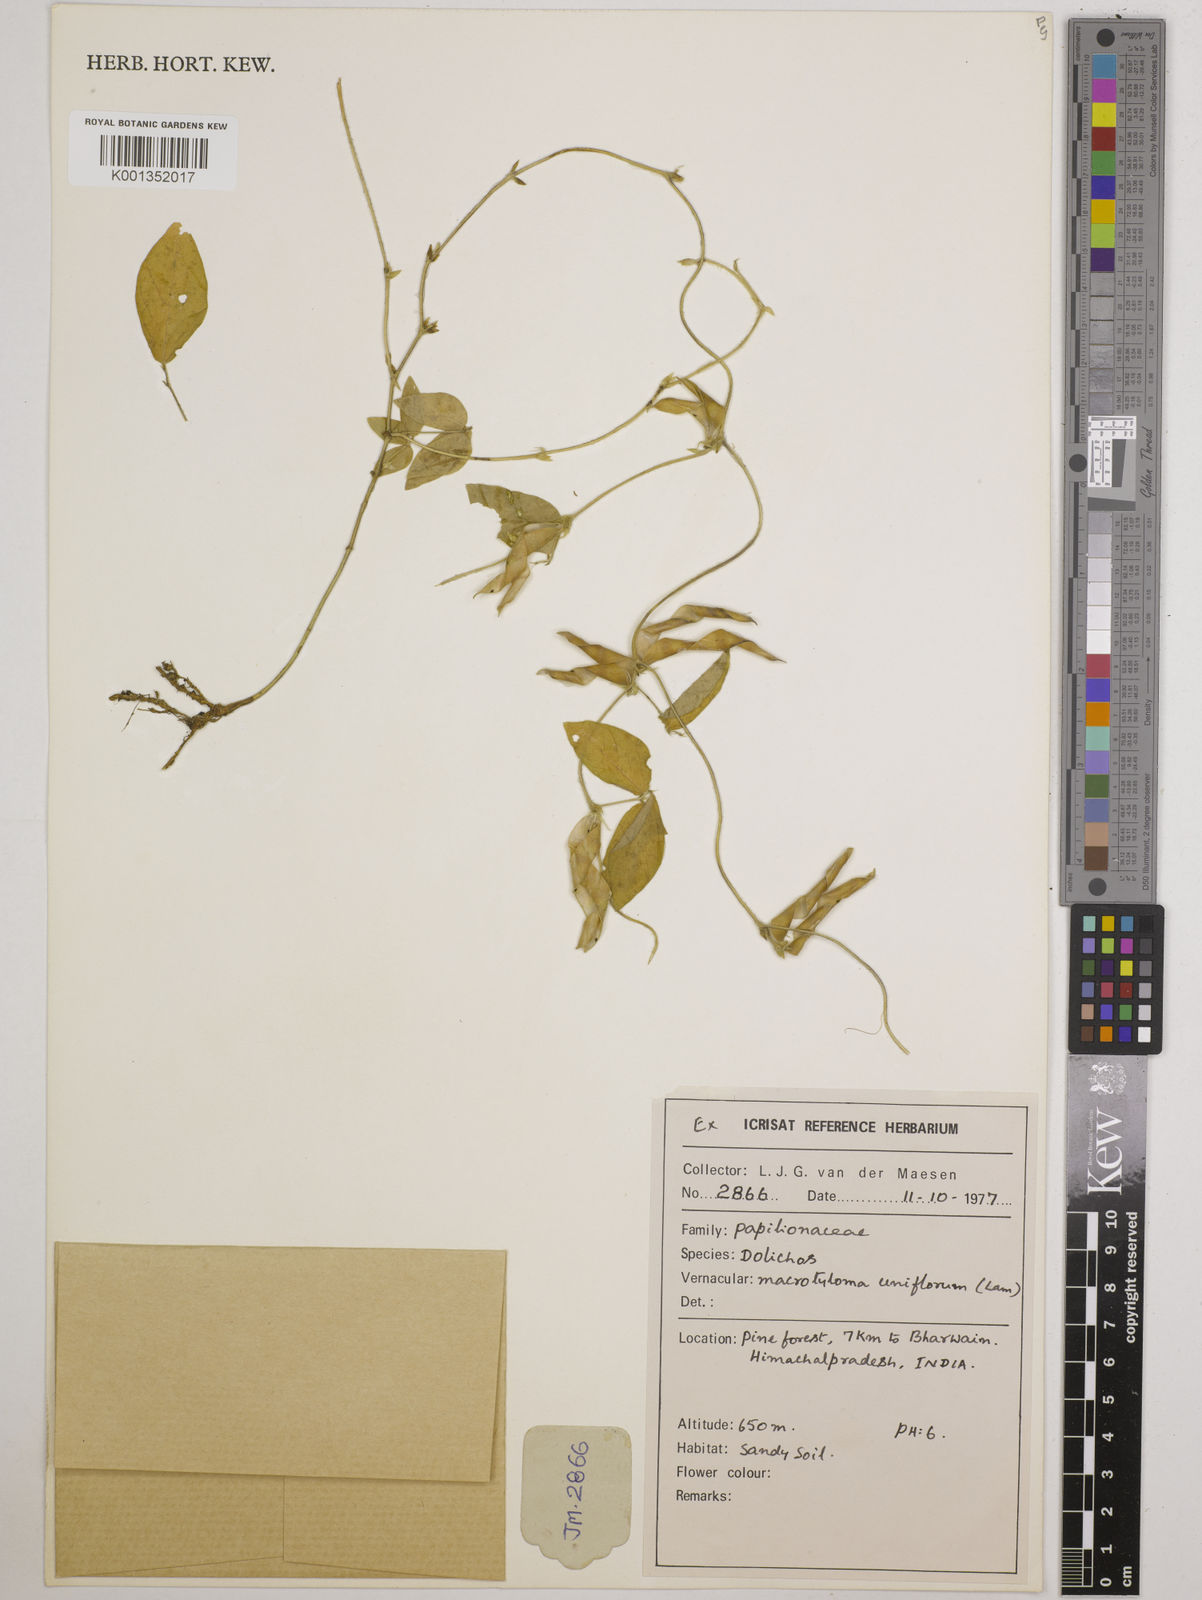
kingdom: Plantae
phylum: Tracheophyta
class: Magnoliopsida
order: Fabales
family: Fabaceae
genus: Macrotyloma
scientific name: Macrotyloma uniflorum
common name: Horse gram
